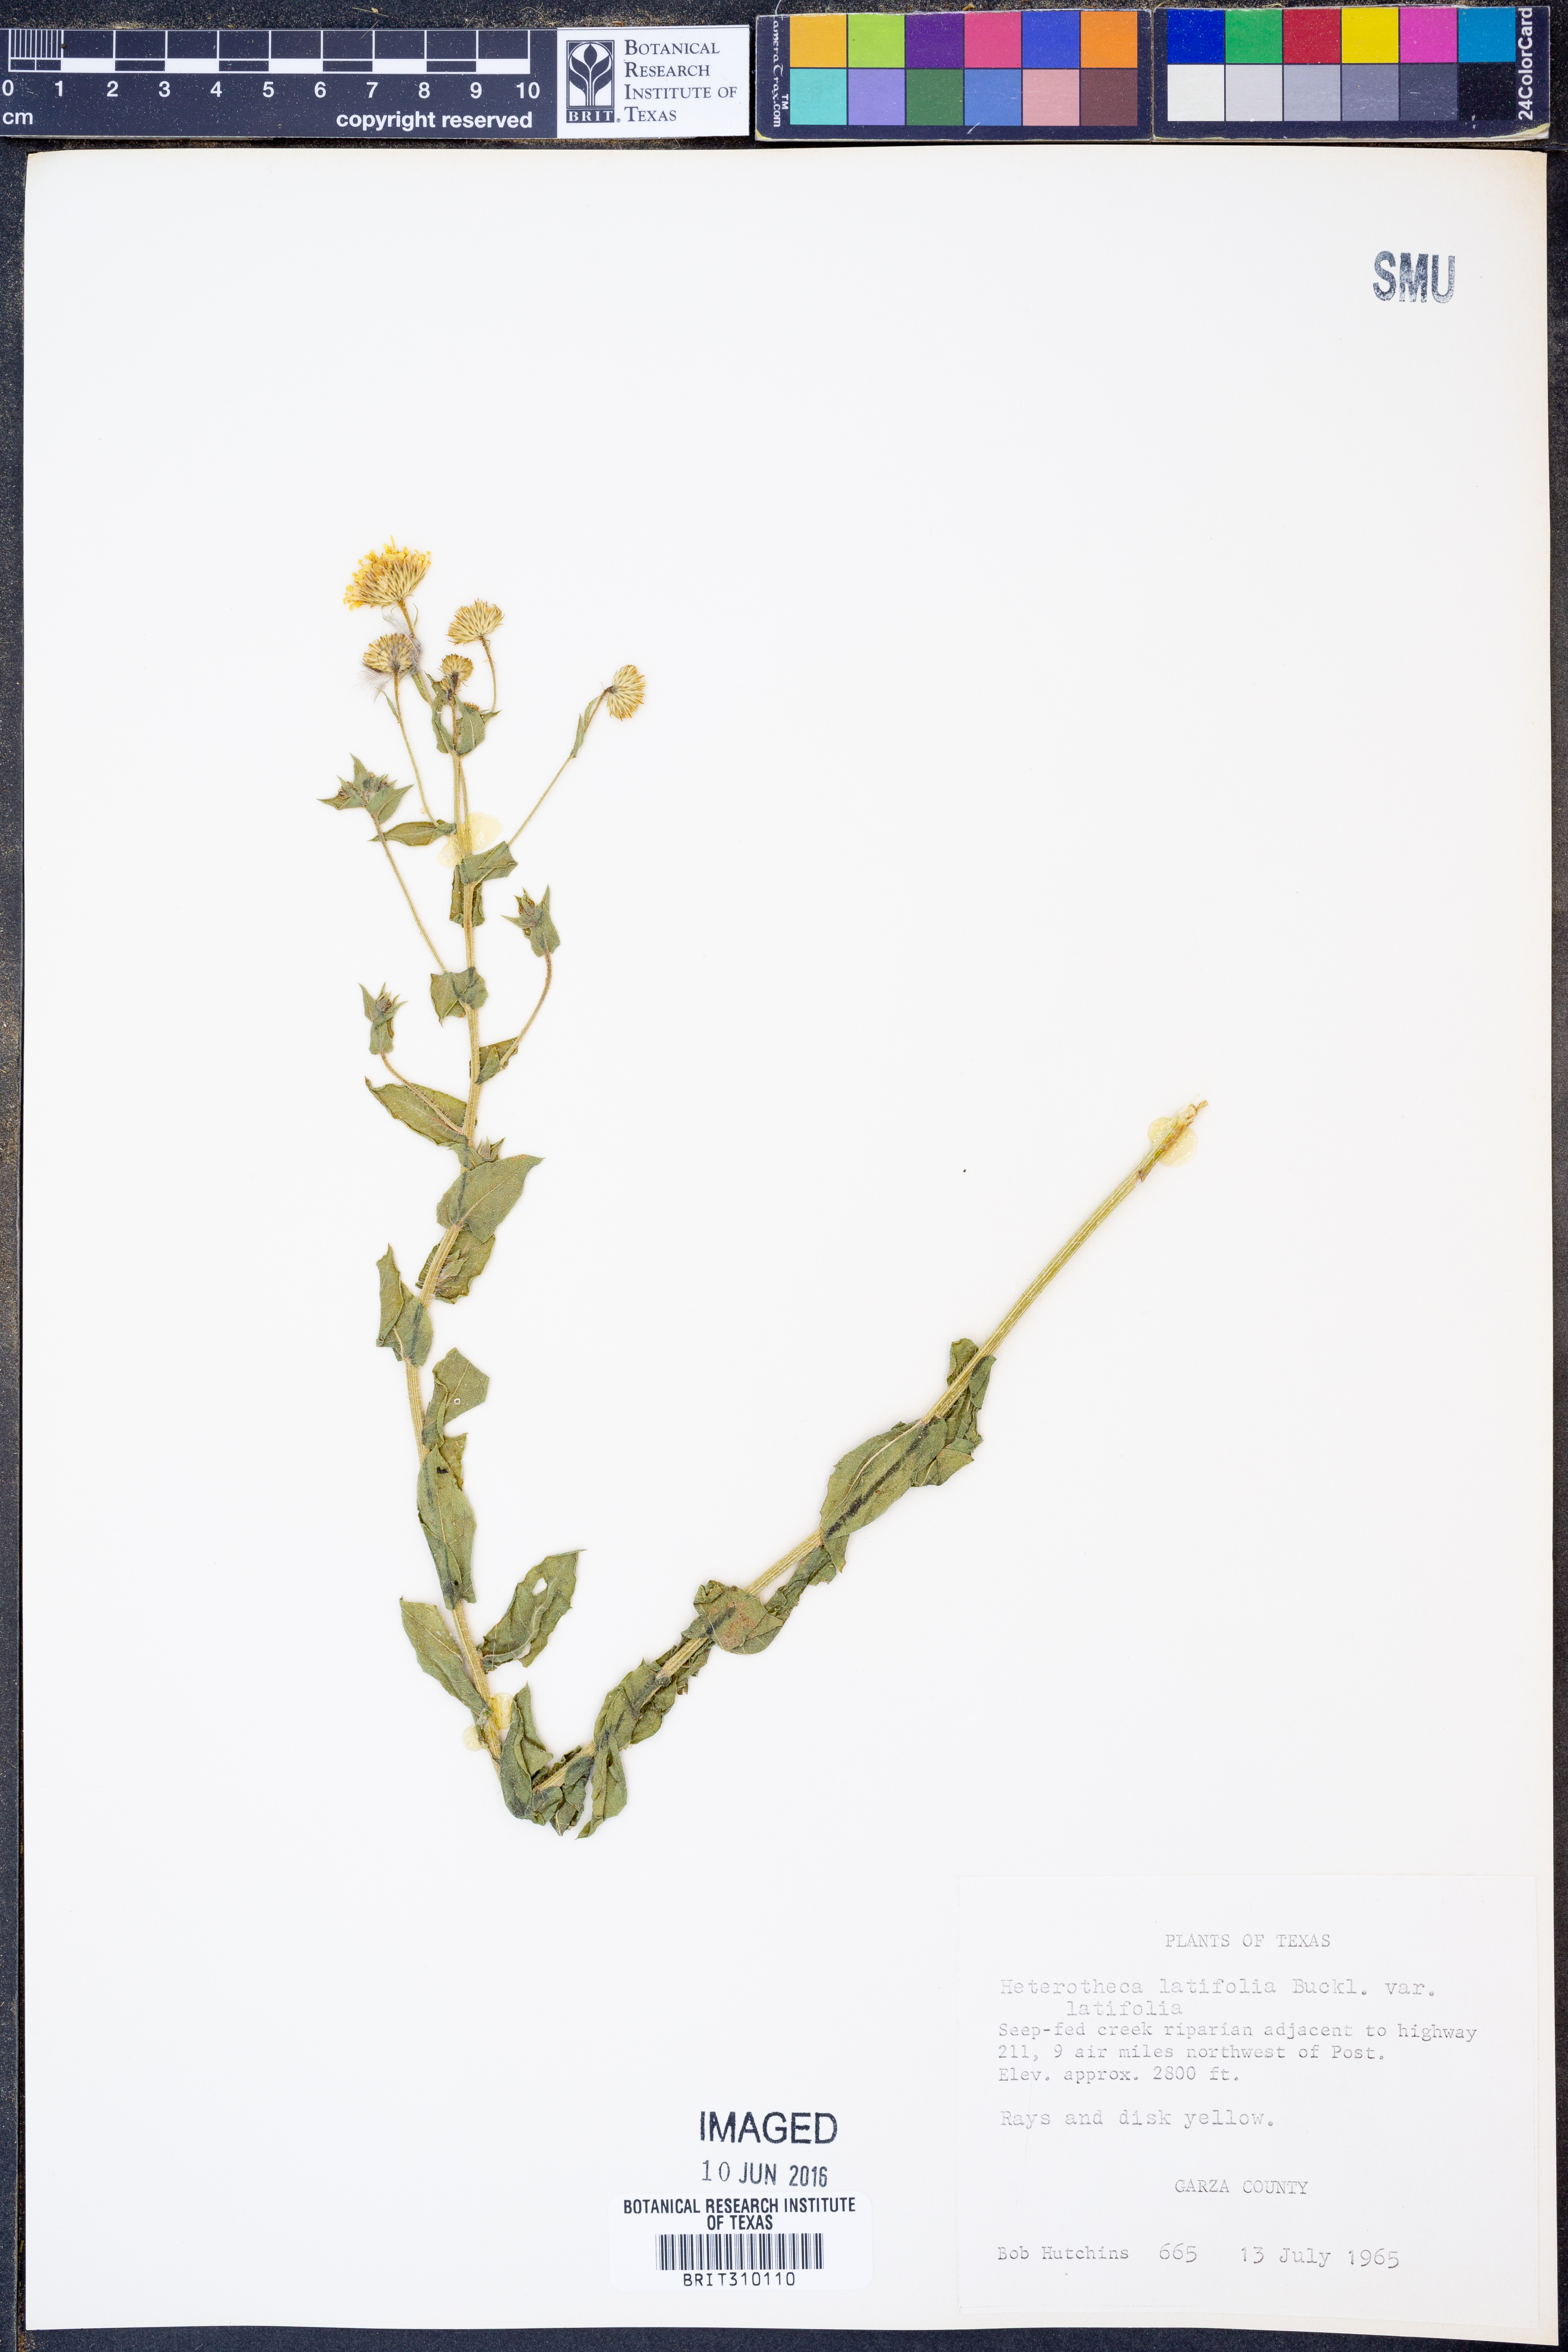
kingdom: Plantae
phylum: Tracheophyta
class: Magnoliopsida
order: Asterales
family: Asteraceae
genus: Heterotheca
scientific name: Heterotheca subaxillaris
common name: Camphorweed
